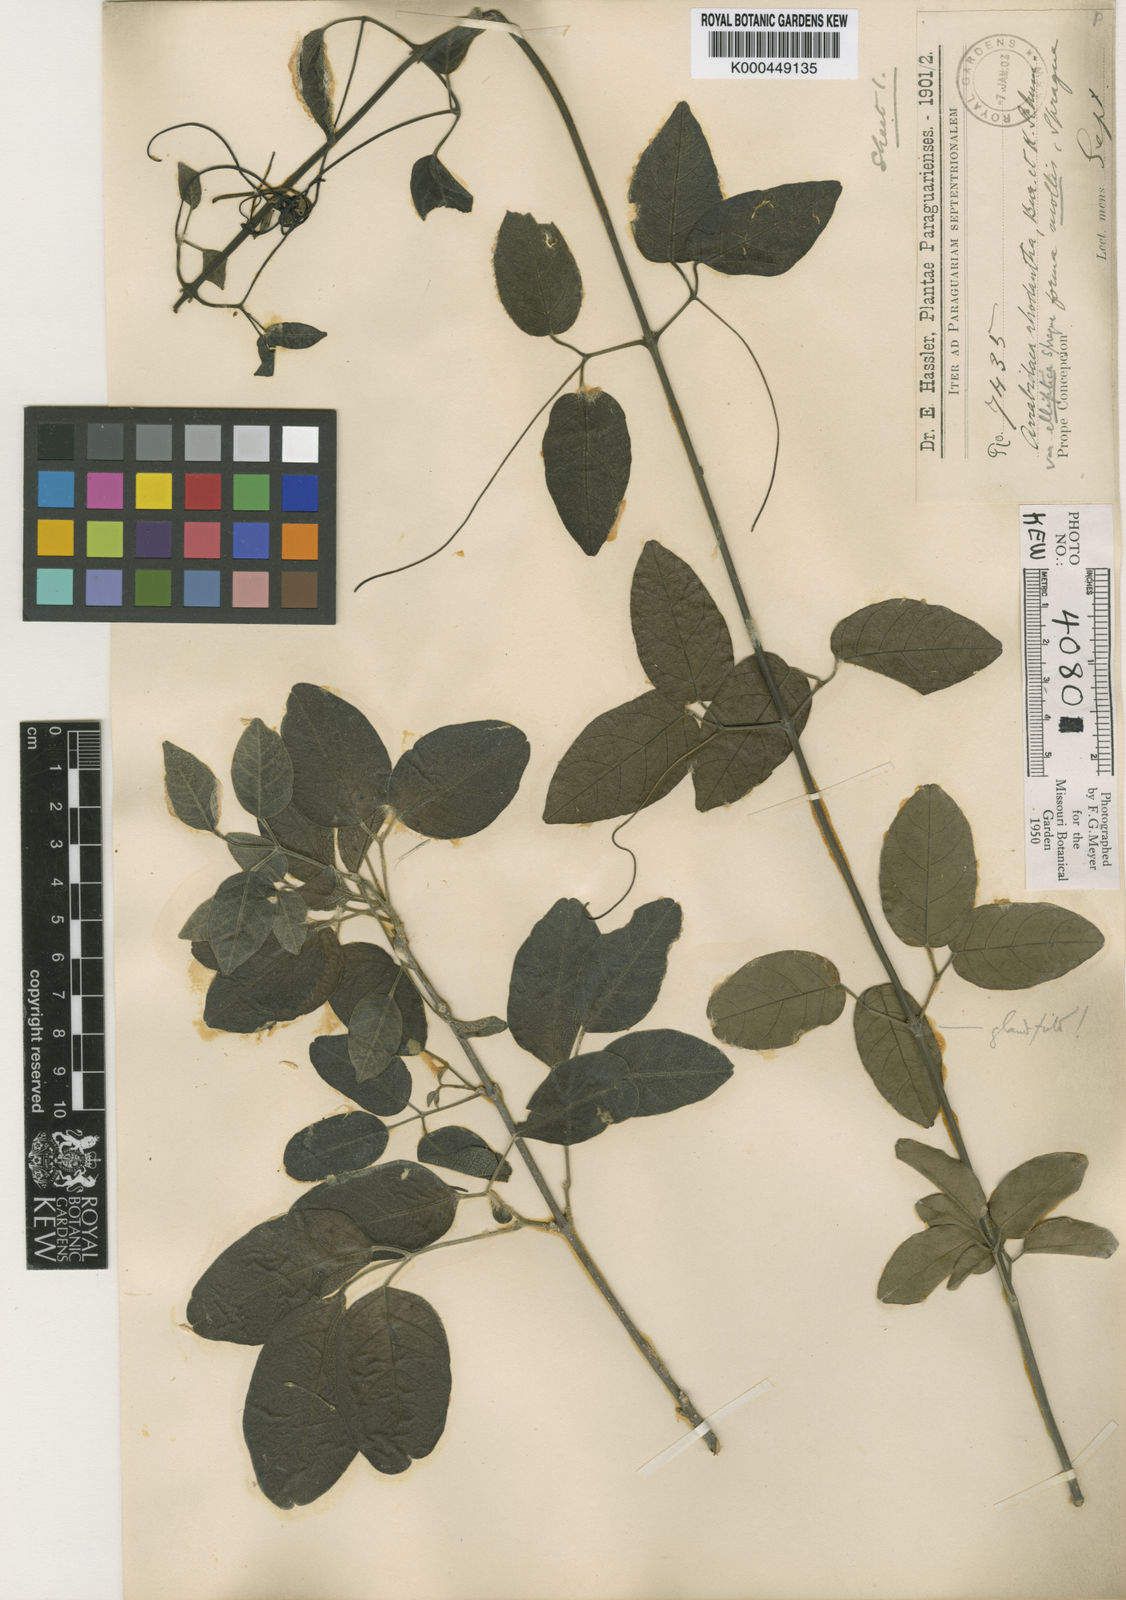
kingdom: Plantae
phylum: Tracheophyta
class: Magnoliopsida
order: Lamiales
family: Bignoniaceae
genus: Tanaecium
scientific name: Tanaecium dichotomum
